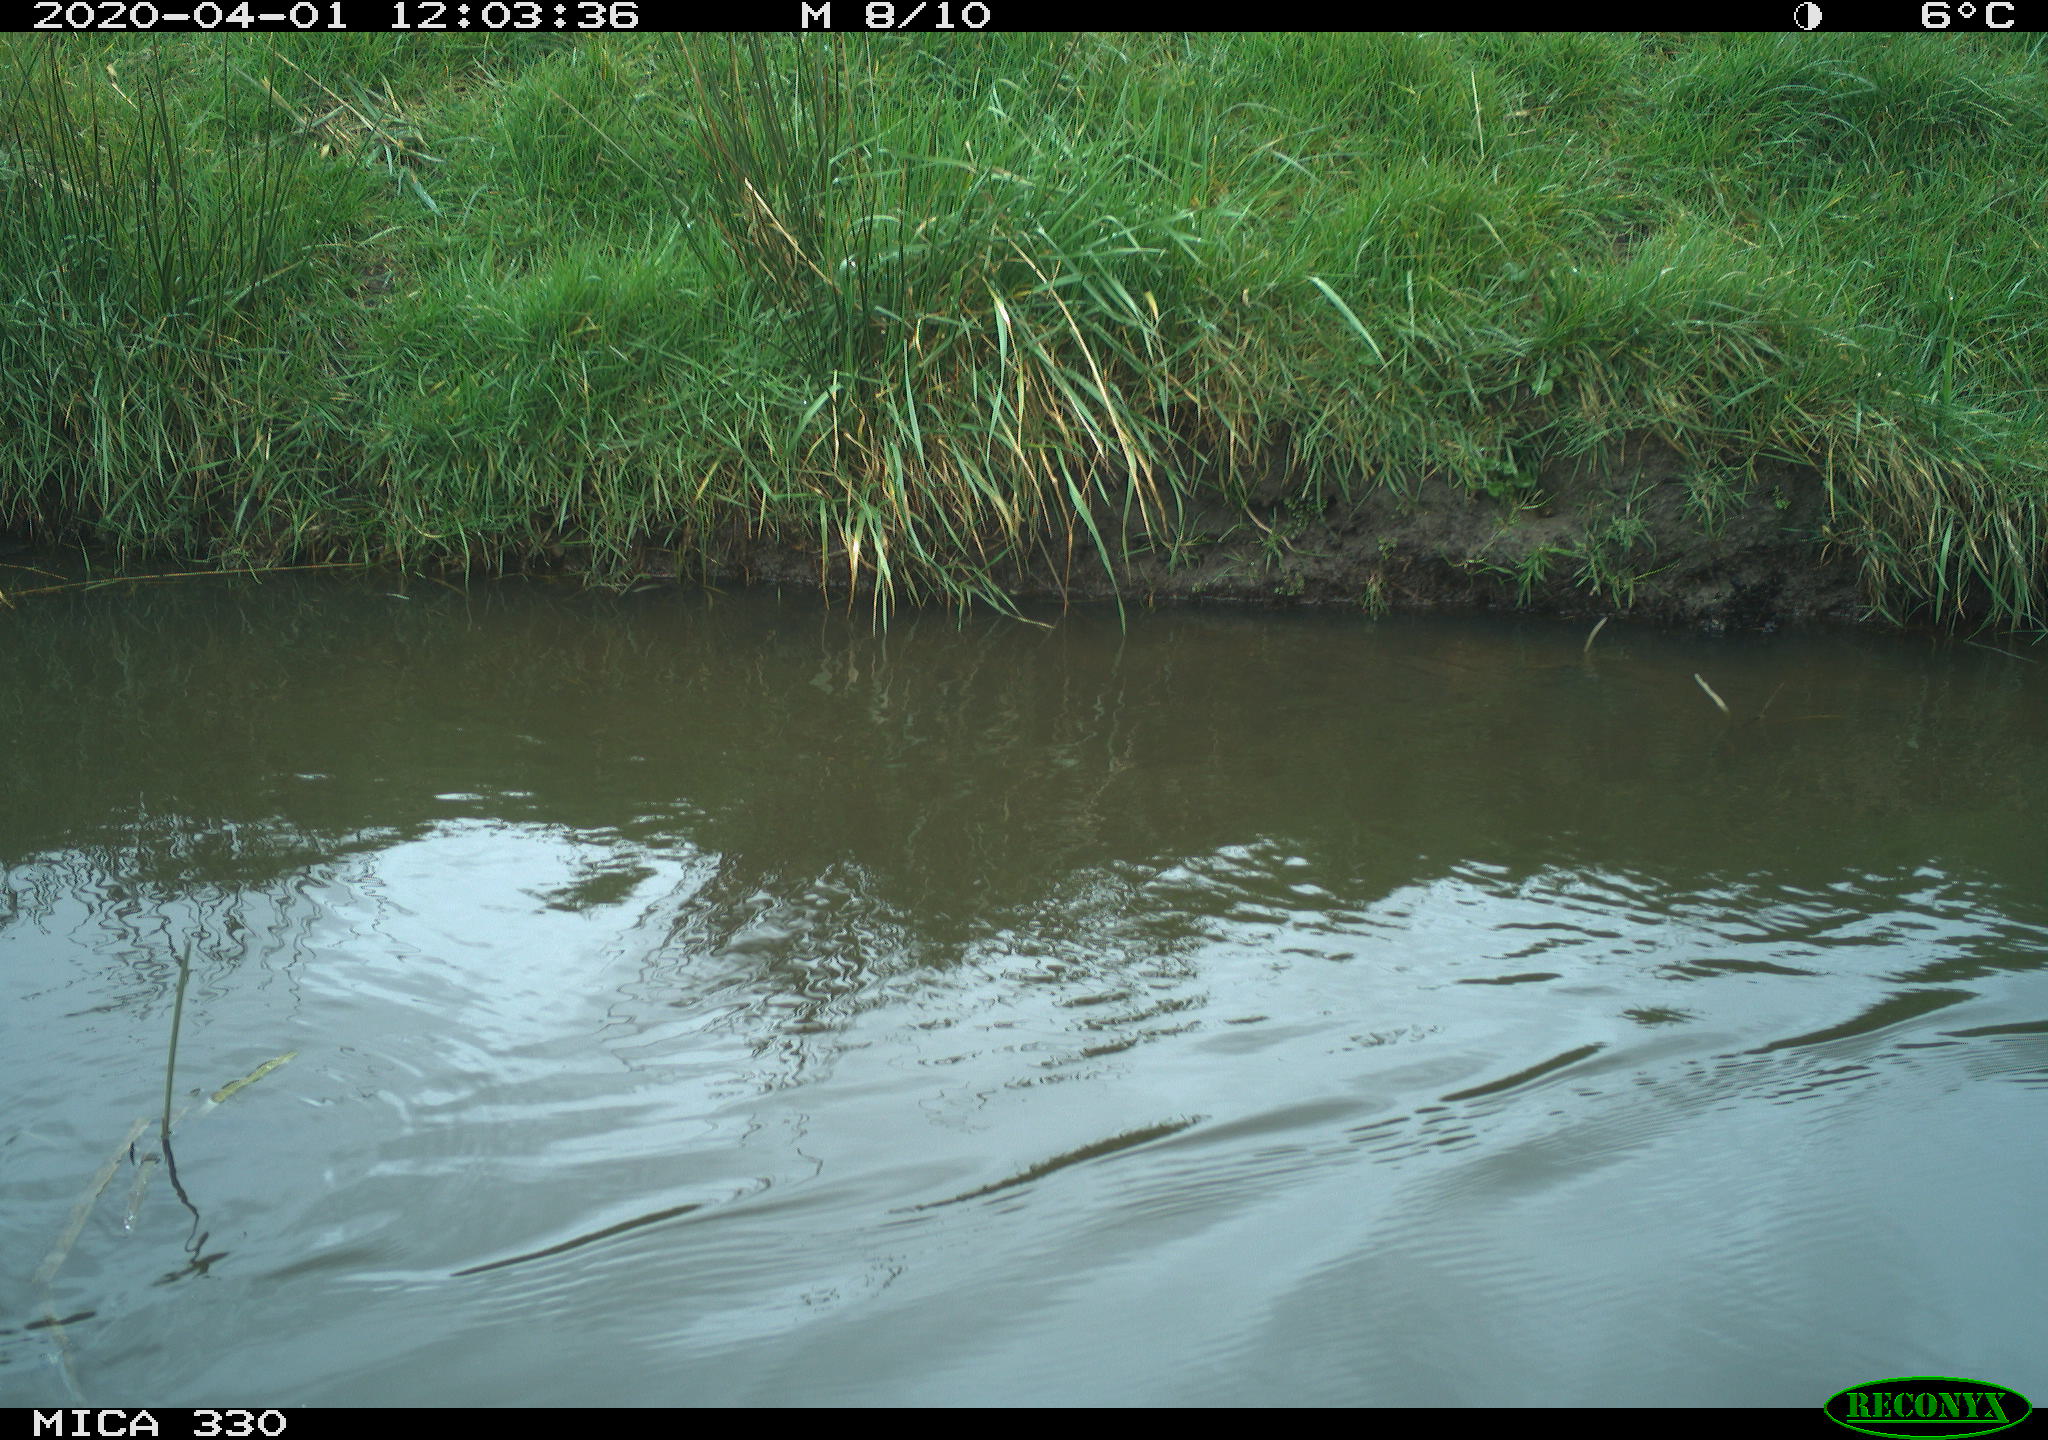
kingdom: Animalia
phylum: Chordata
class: Aves
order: Anseriformes
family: Anatidae
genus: Anas
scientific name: Anas platyrhynchos
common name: Mallard
